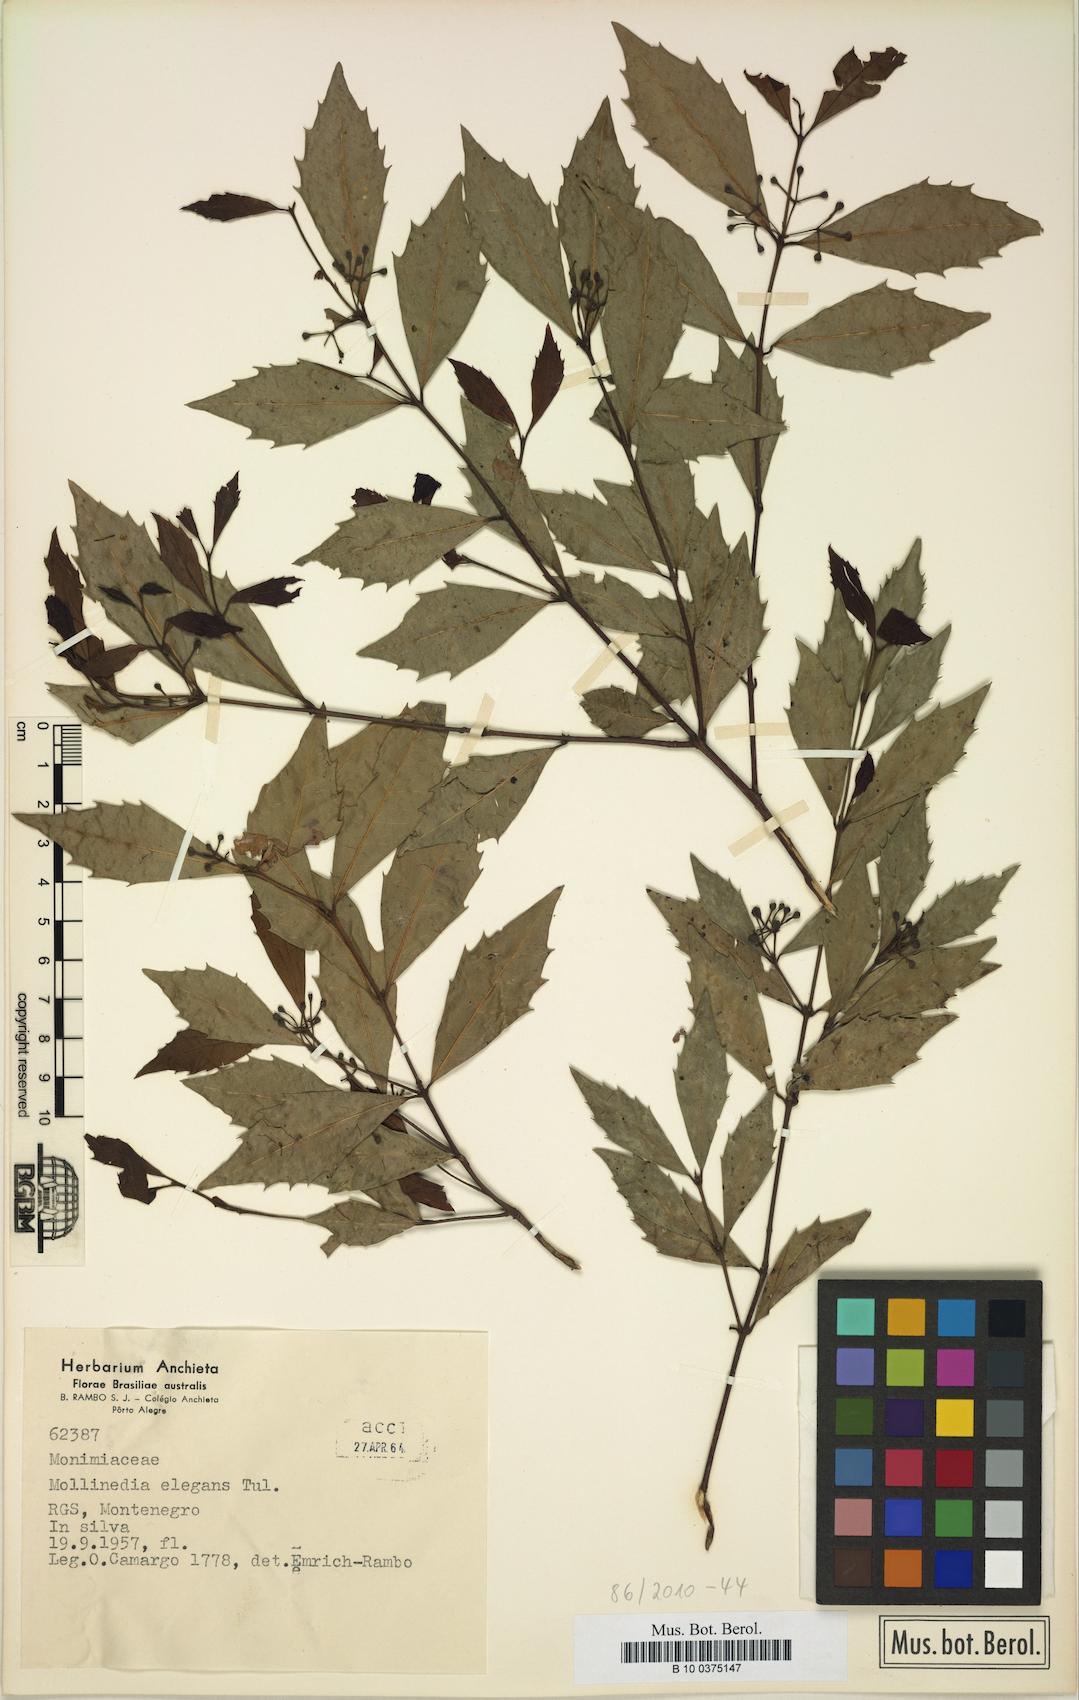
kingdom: Plantae
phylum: Tracheophyta
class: Magnoliopsida
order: Laurales
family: Monimiaceae
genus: Mollinedia
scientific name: Mollinedia elegans
